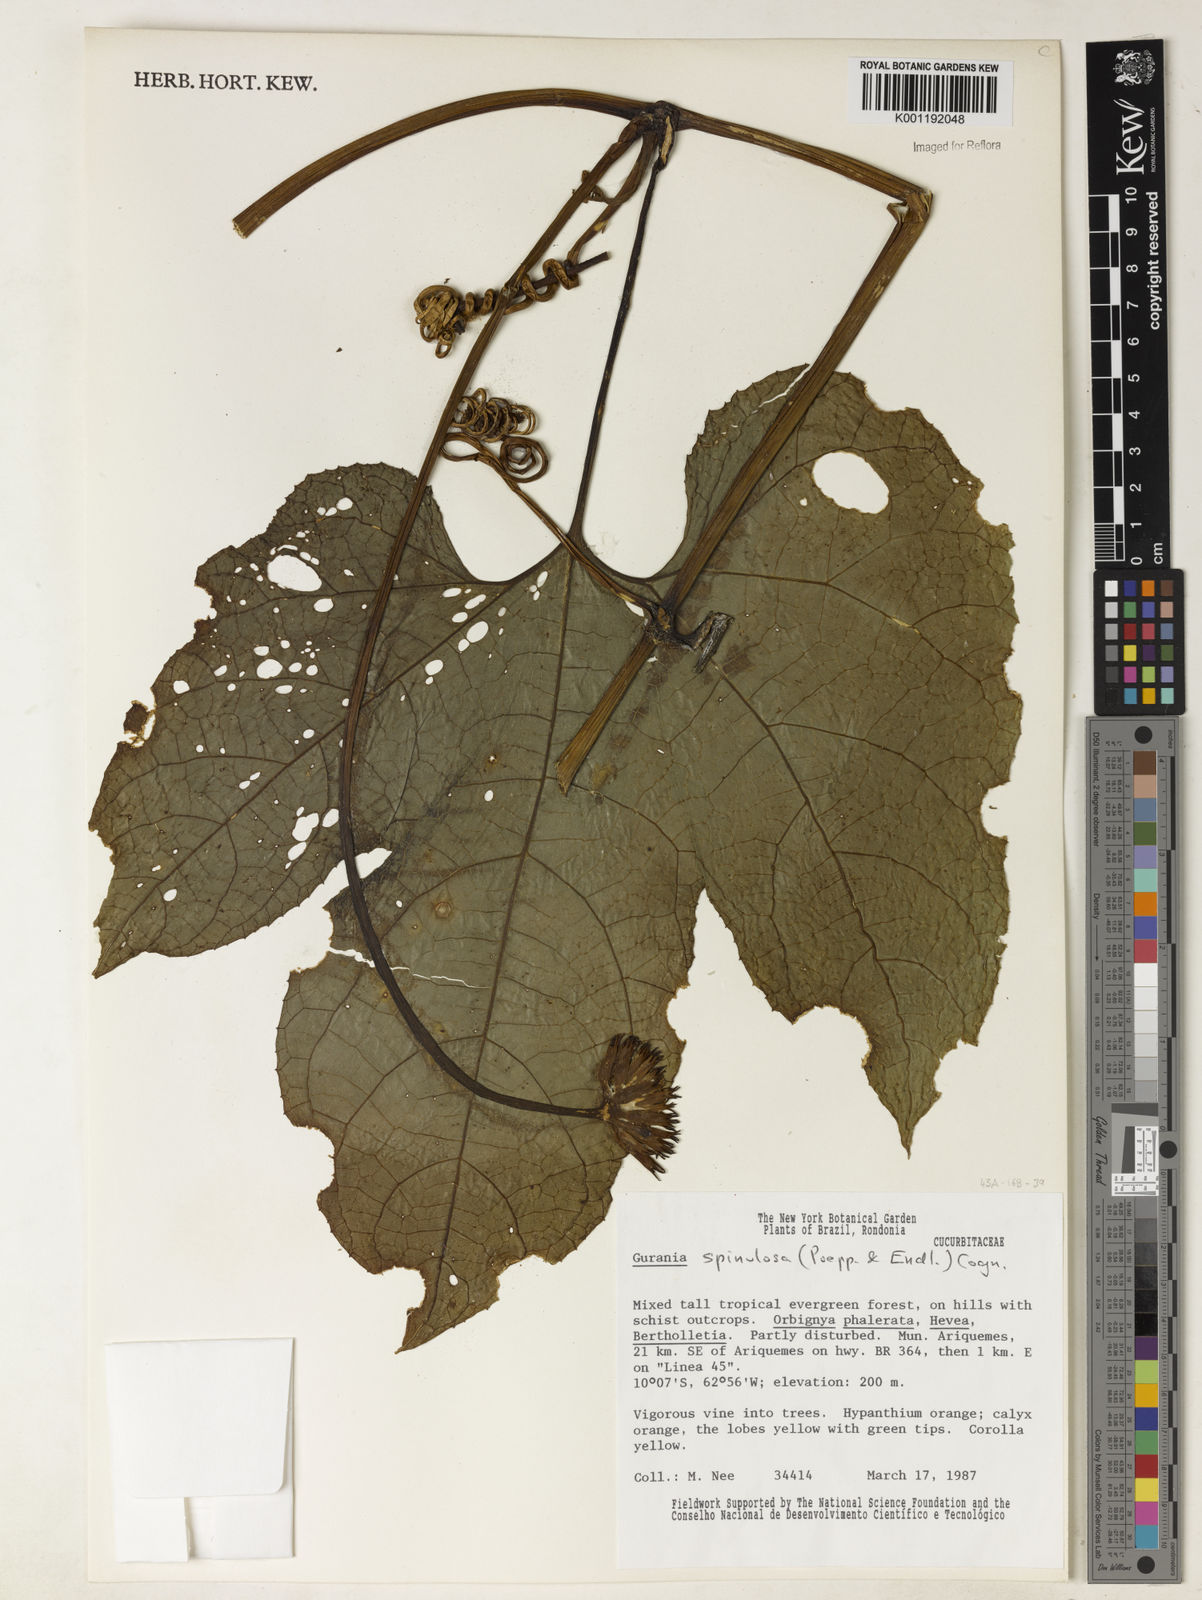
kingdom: Plantae
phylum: Tracheophyta
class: Magnoliopsida
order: Cucurbitales
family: Cucurbitaceae
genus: Gurania
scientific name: Gurania lobata
